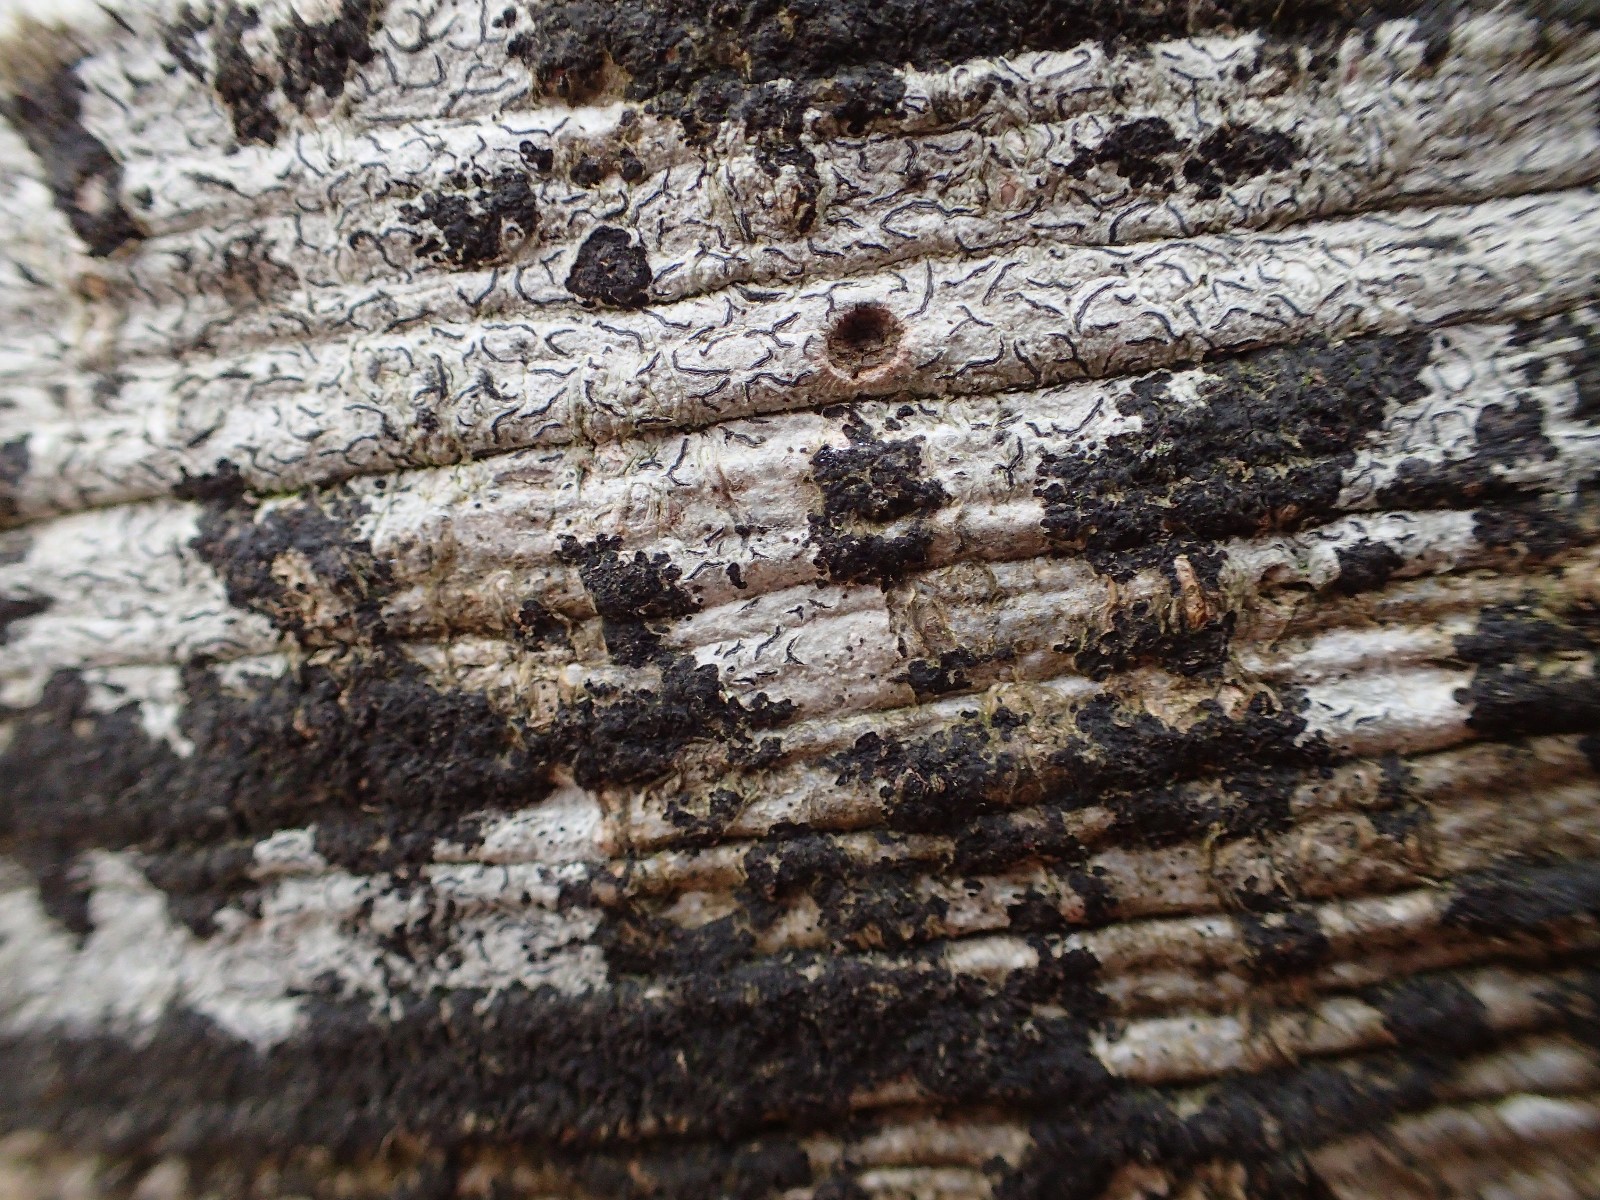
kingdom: Fungi
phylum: Ascomycota
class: Leotiomycetes
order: Rhytismatales
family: Ascodichaenaceae
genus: Ascodichaena
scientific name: Ascodichaena rugosa
